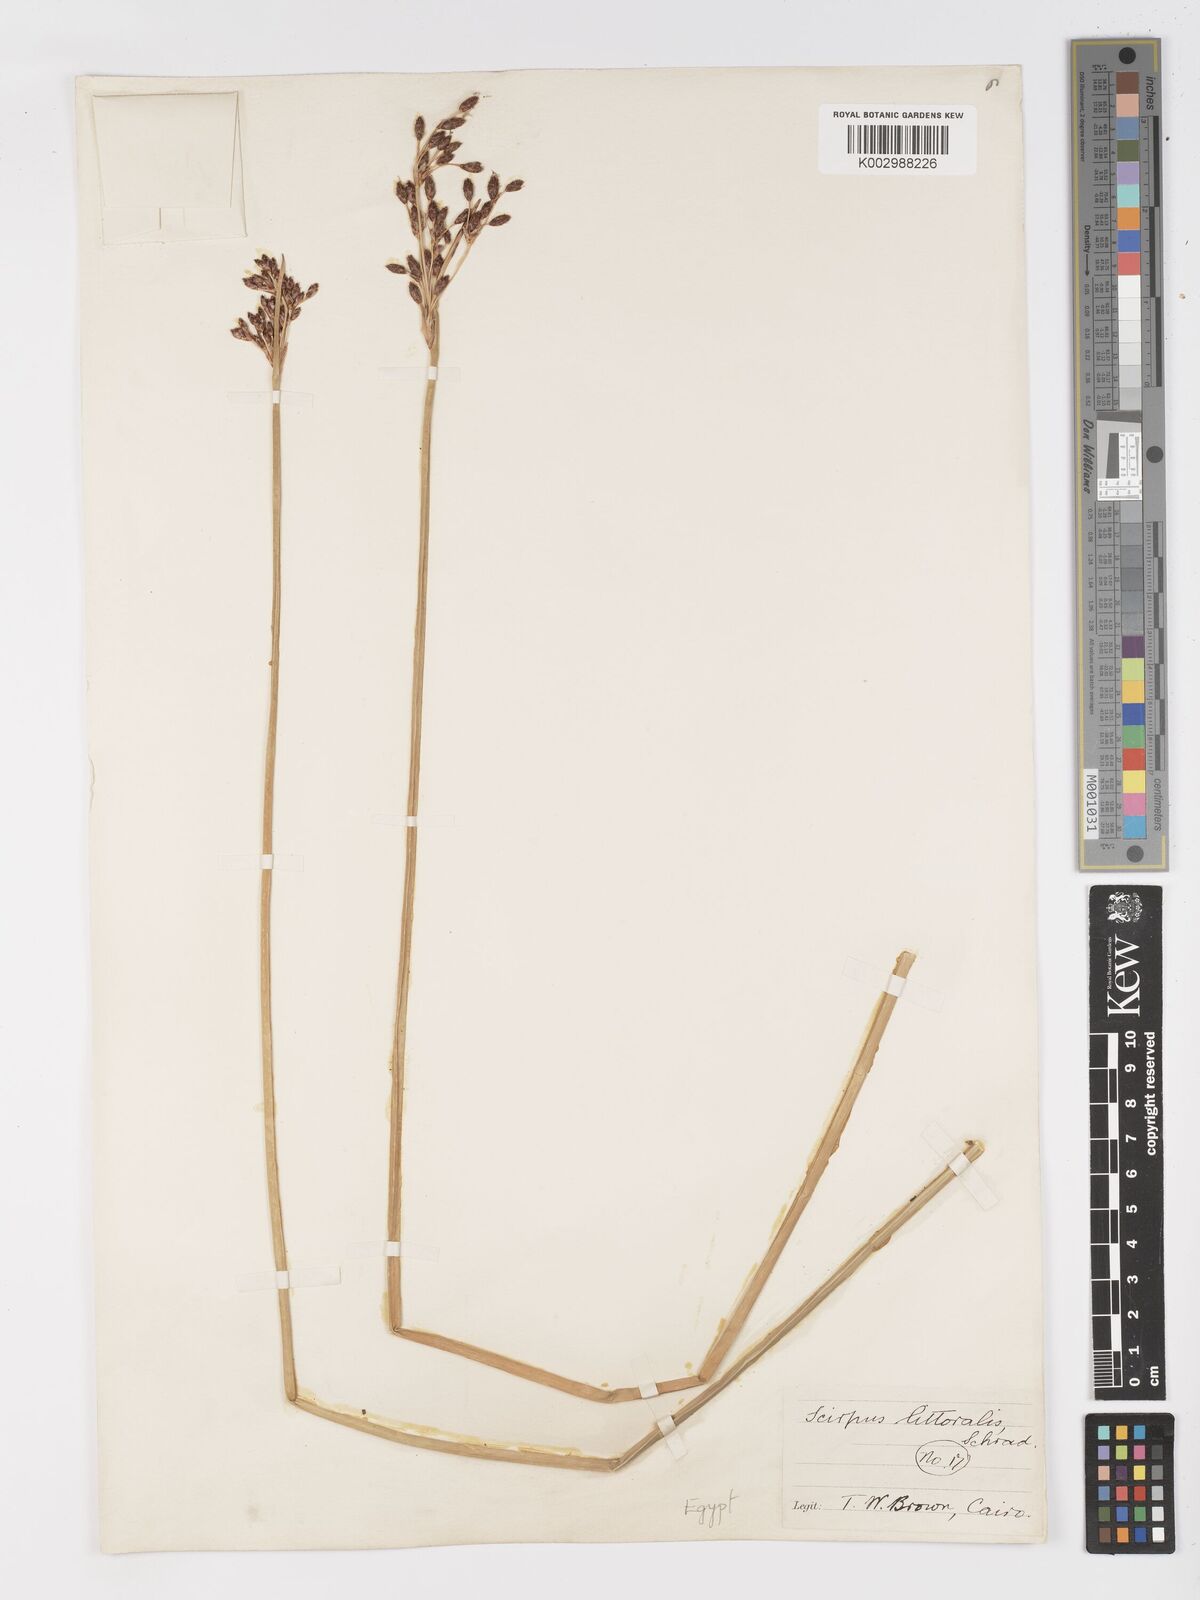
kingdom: Plantae
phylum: Tracheophyta
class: Liliopsida
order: Poales
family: Cyperaceae
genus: Schoenoplectus
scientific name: Schoenoplectus litoralis
